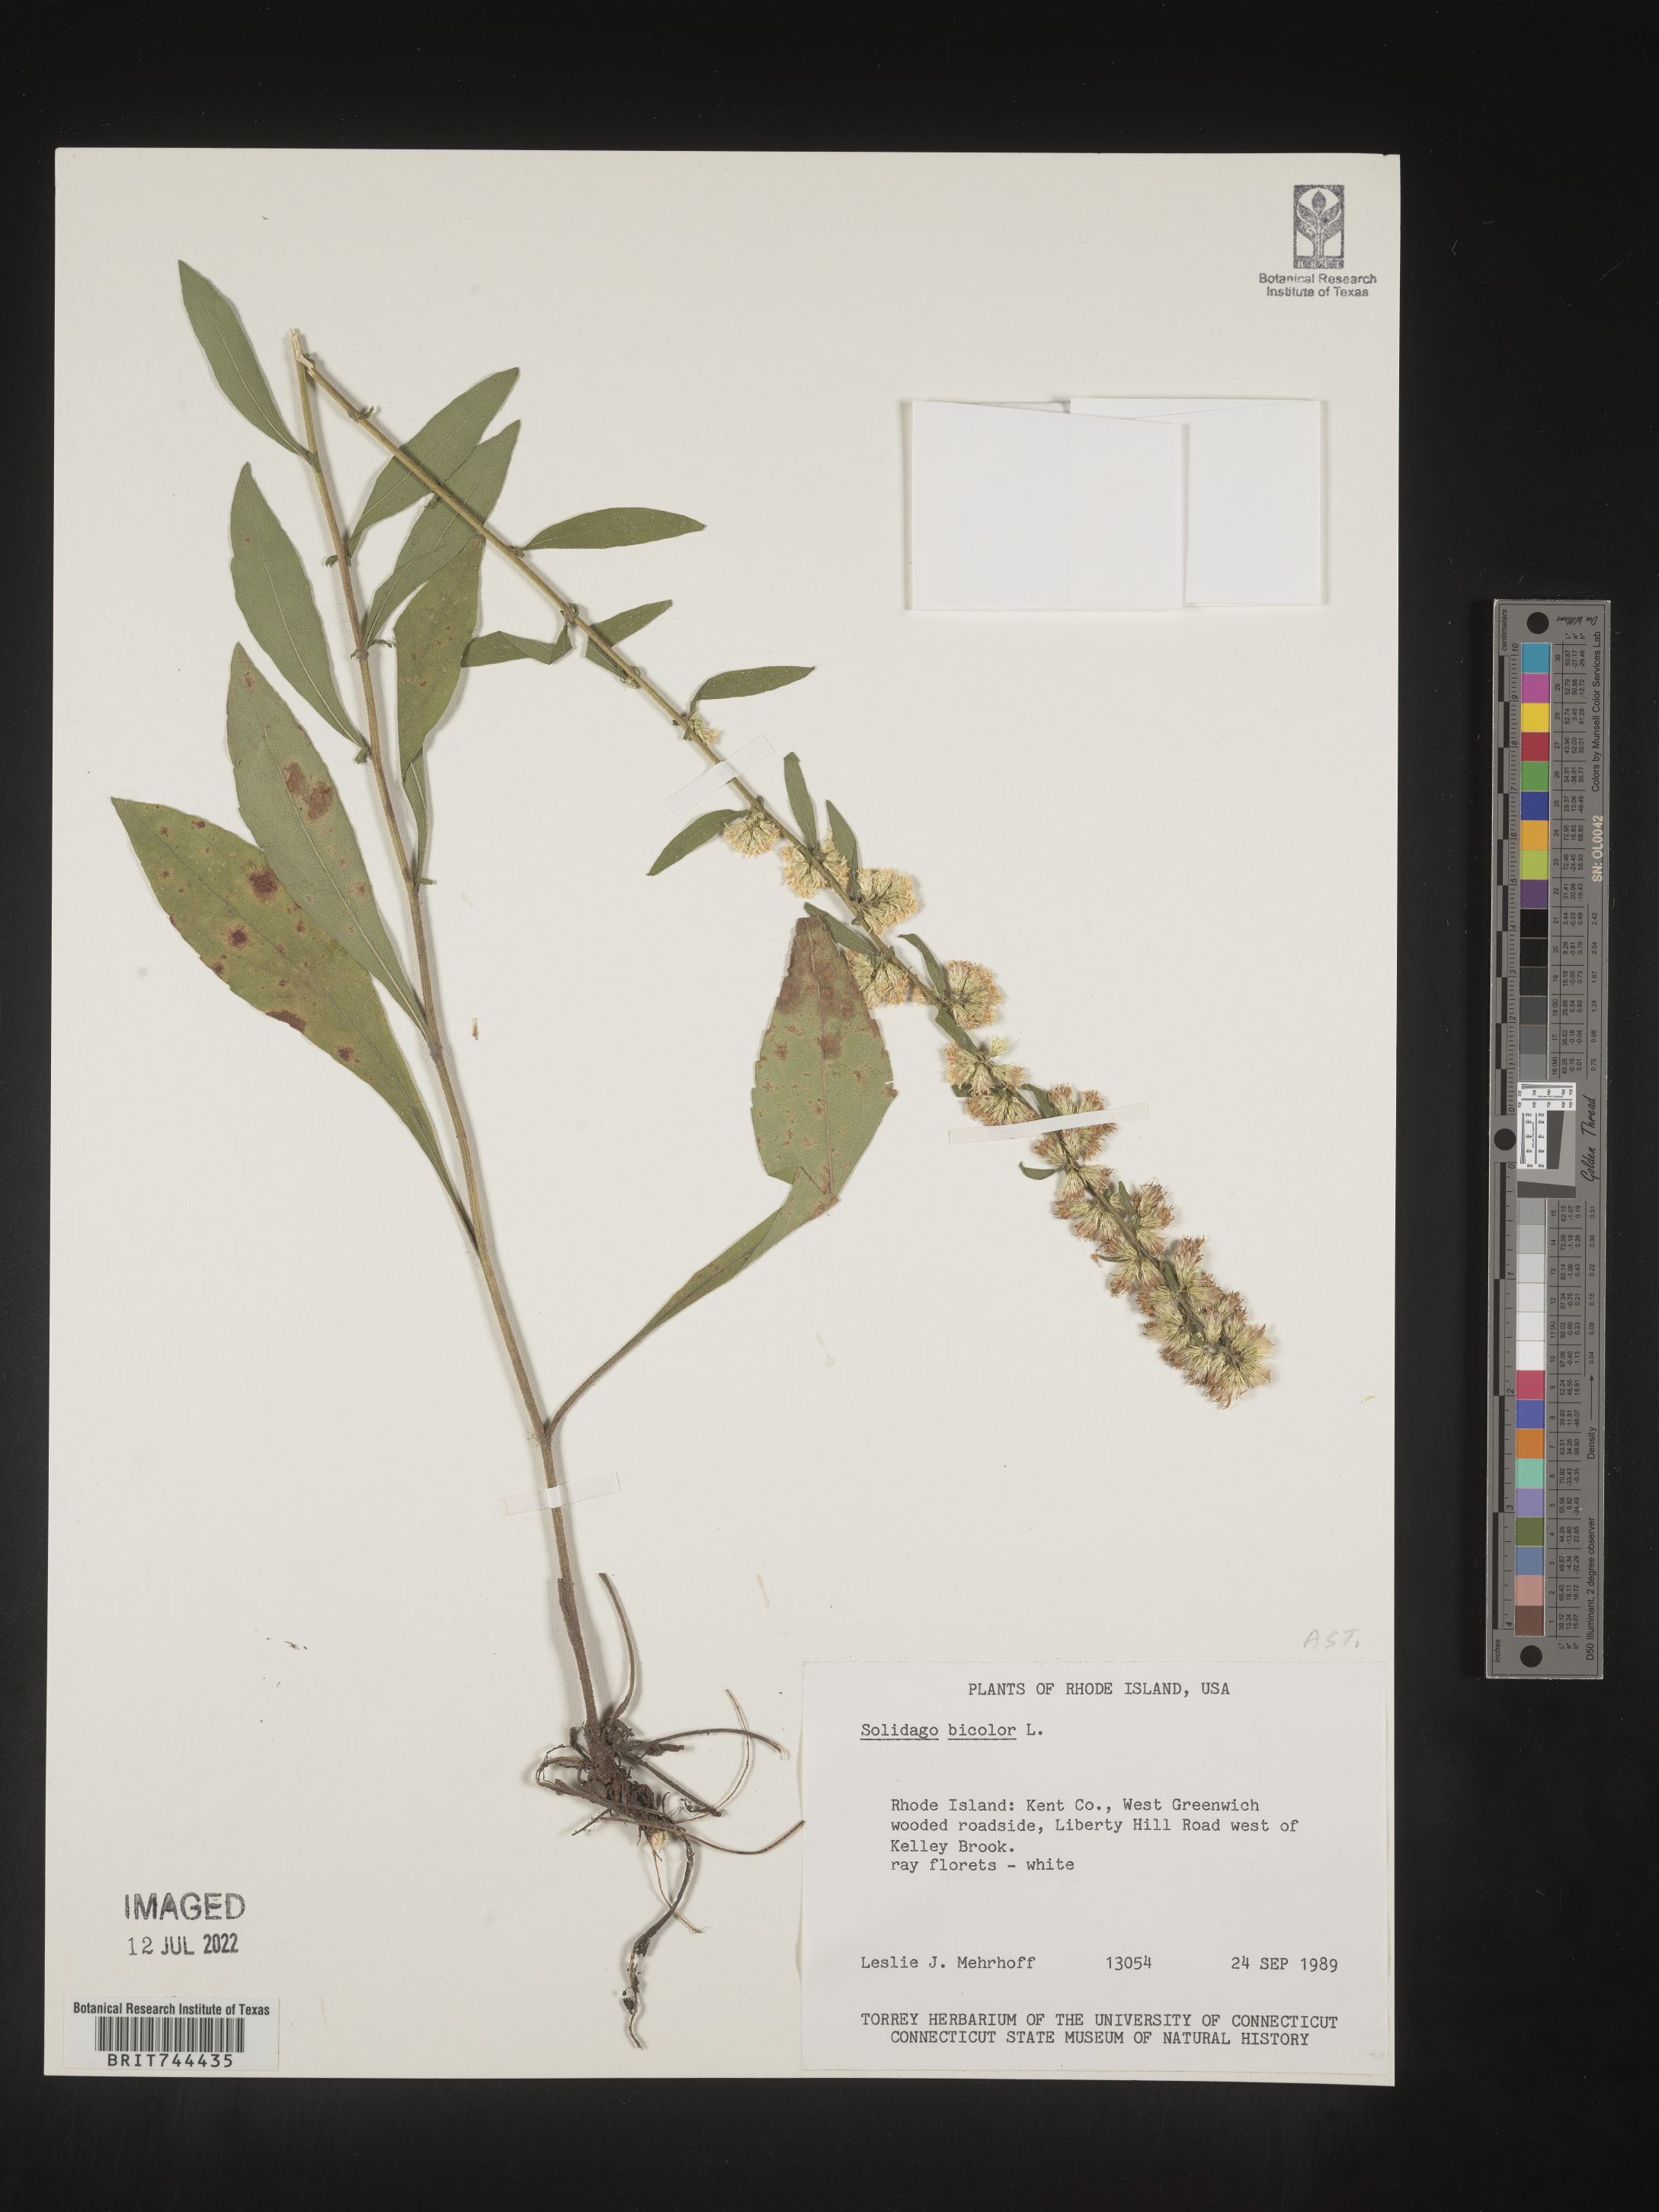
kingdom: Plantae
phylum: Tracheophyta
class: Magnoliopsida
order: Asterales
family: Asteraceae
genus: Solidago
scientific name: Solidago bicolor
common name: Silverrod
